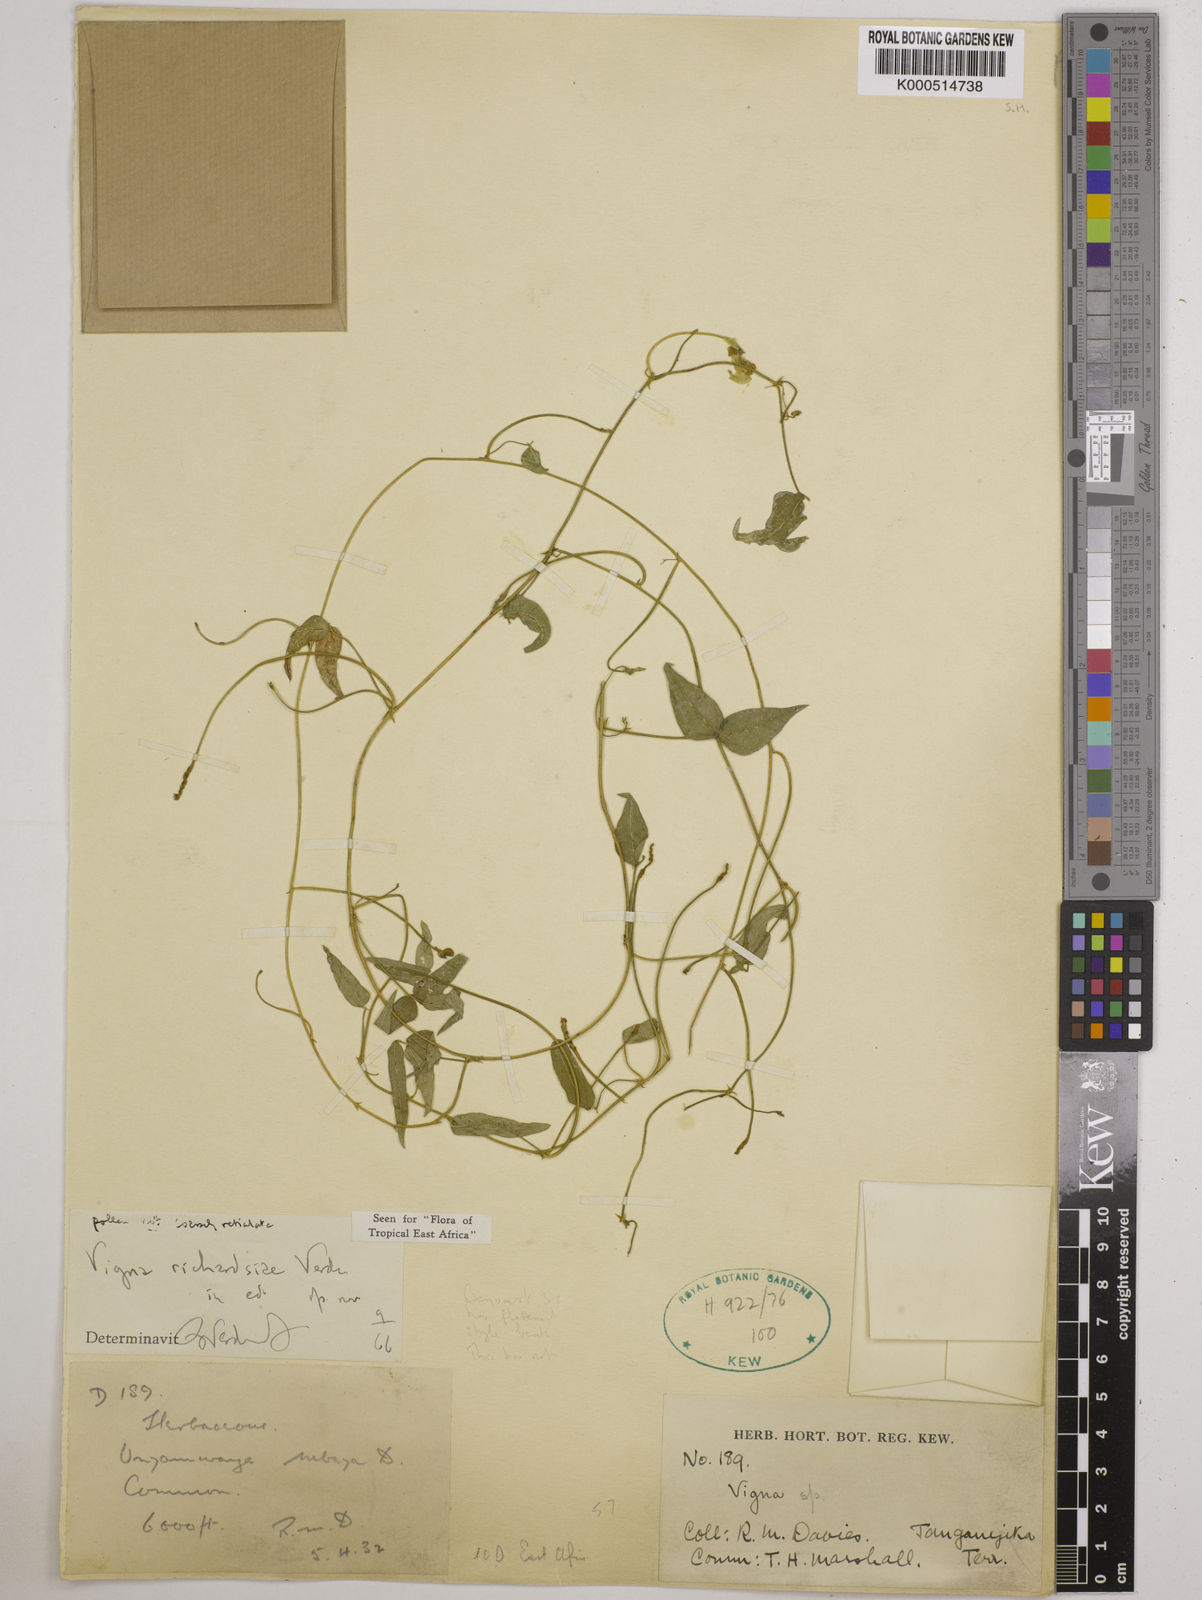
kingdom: Plantae
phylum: Tracheophyta
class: Magnoliopsida
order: Fabales
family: Fabaceae
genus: Vigna
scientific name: Vigna richardsiae
